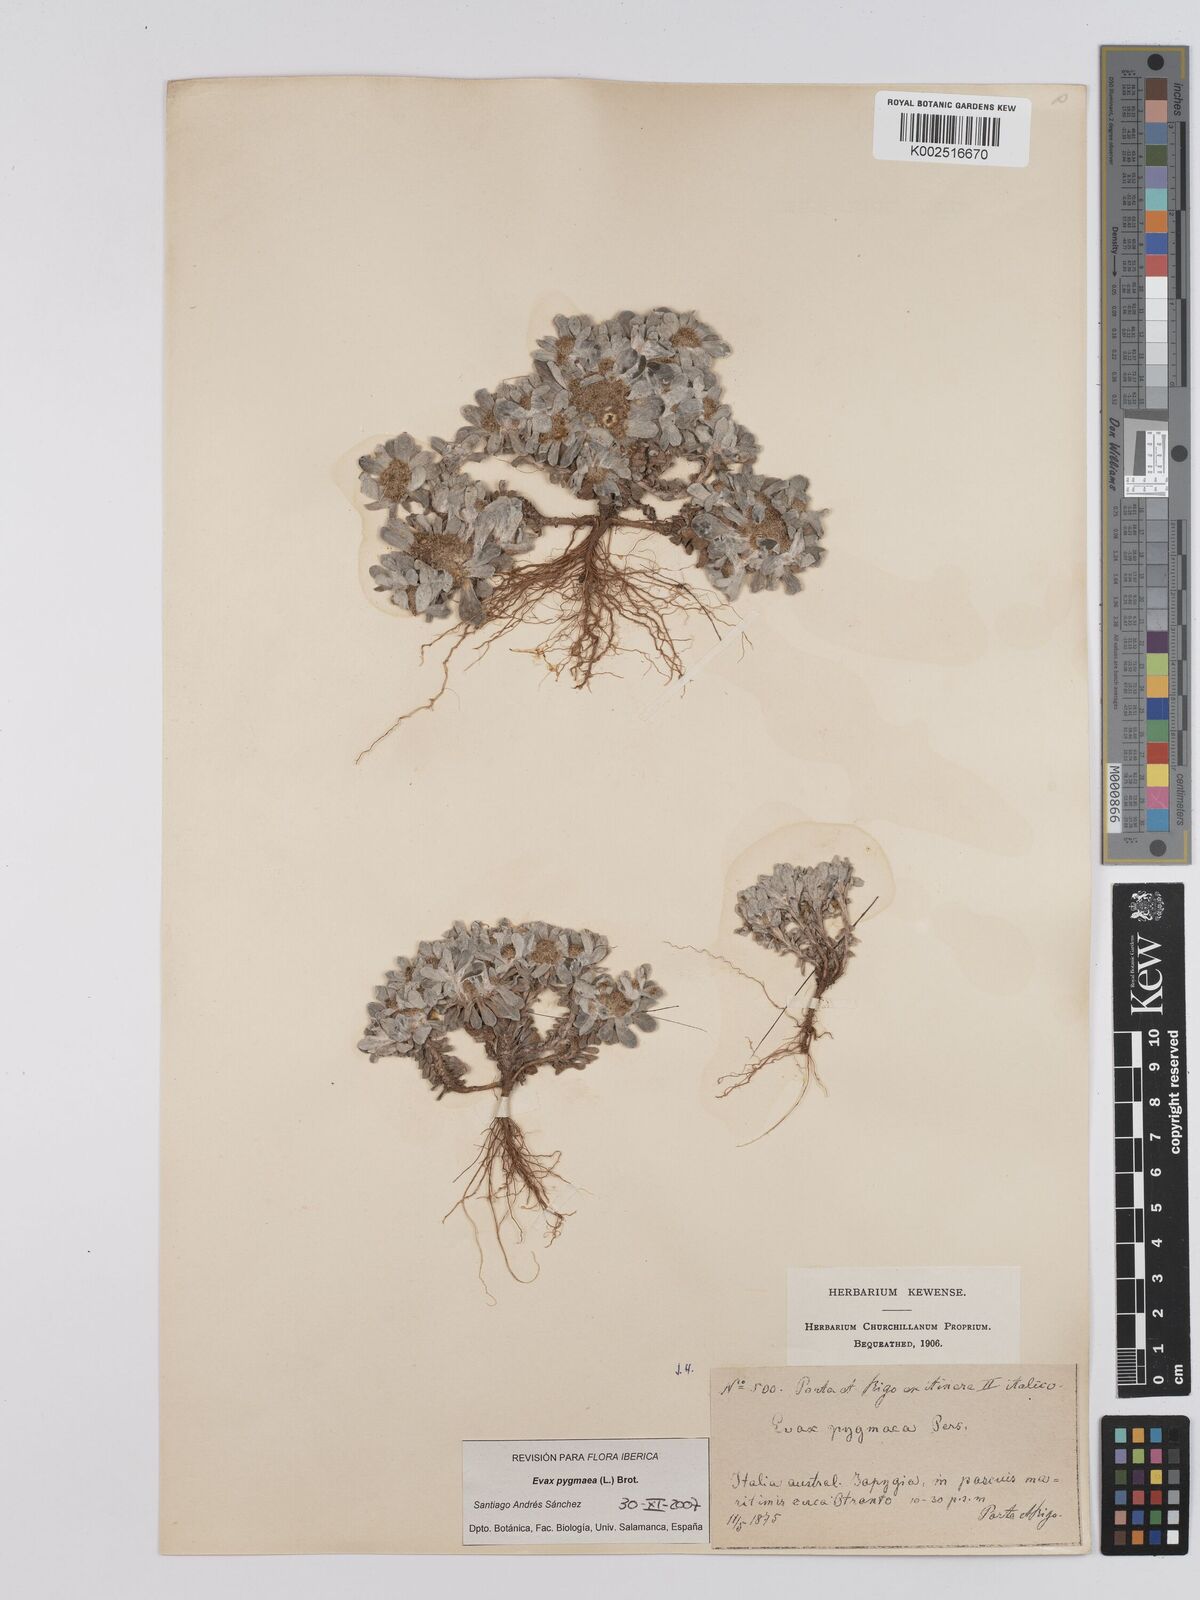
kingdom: Plantae
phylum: Tracheophyta
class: Magnoliopsida
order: Asterales
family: Asteraceae
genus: Filago
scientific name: Filago pygmaea
